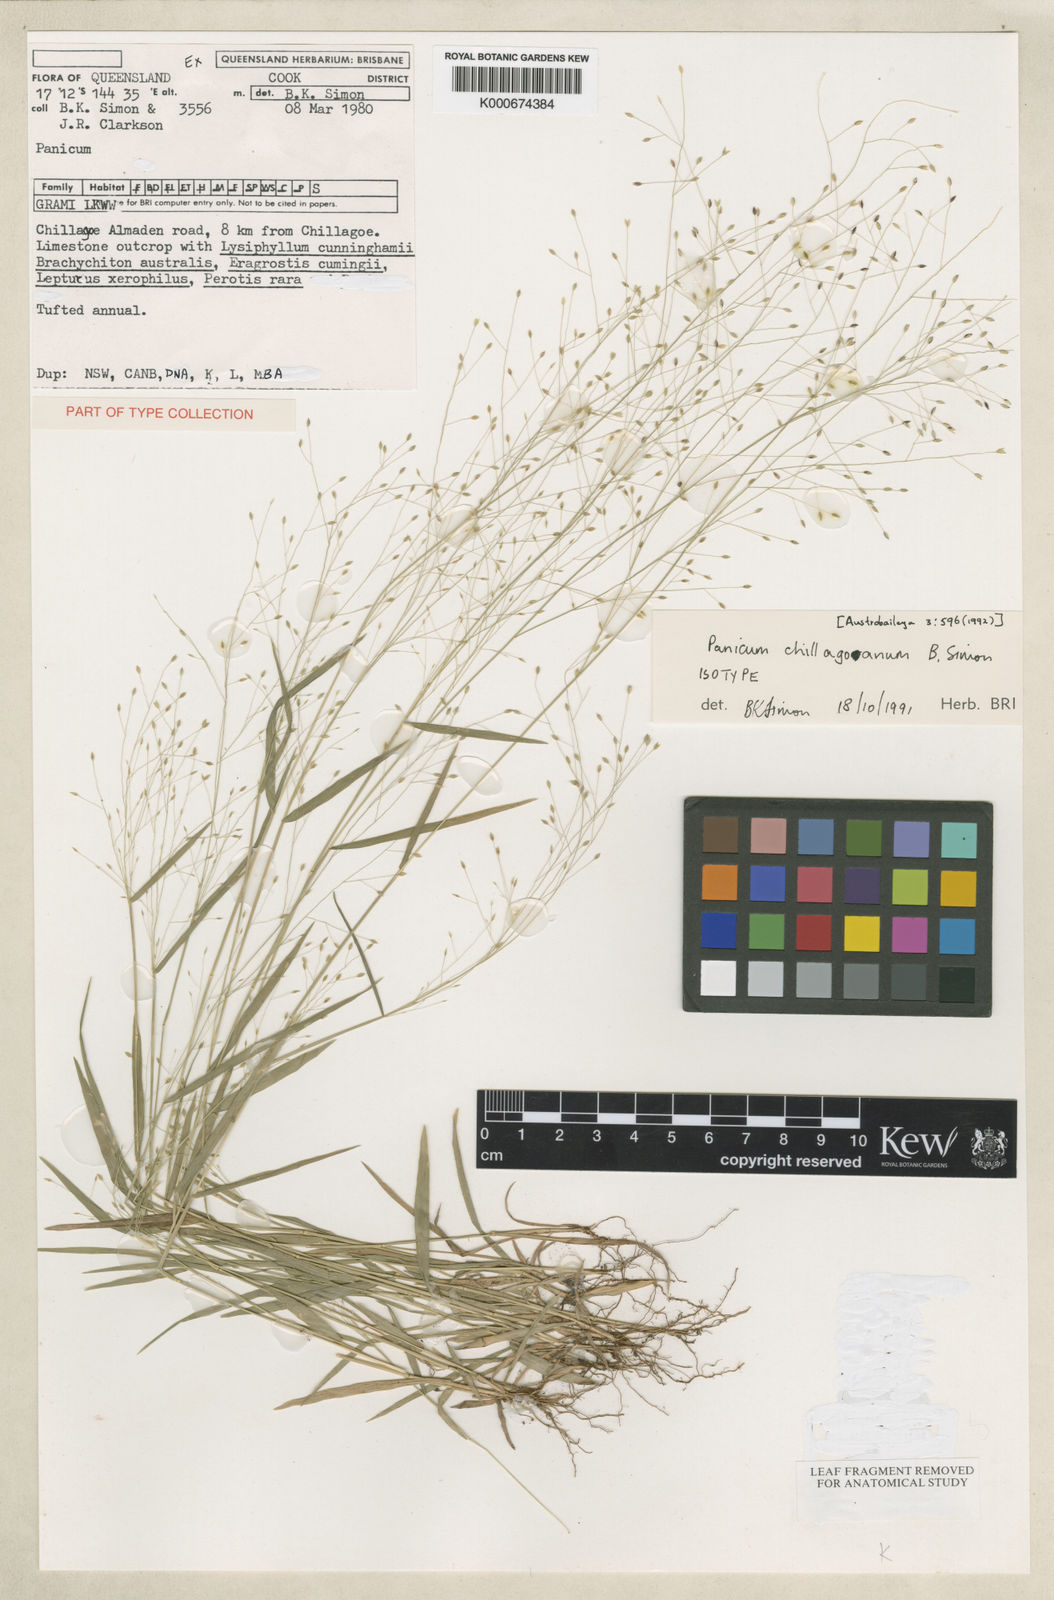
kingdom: Plantae
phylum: Tracheophyta
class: Liliopsida
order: Poales
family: Poaceae
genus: Panicum
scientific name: Panicum chillagoanum
